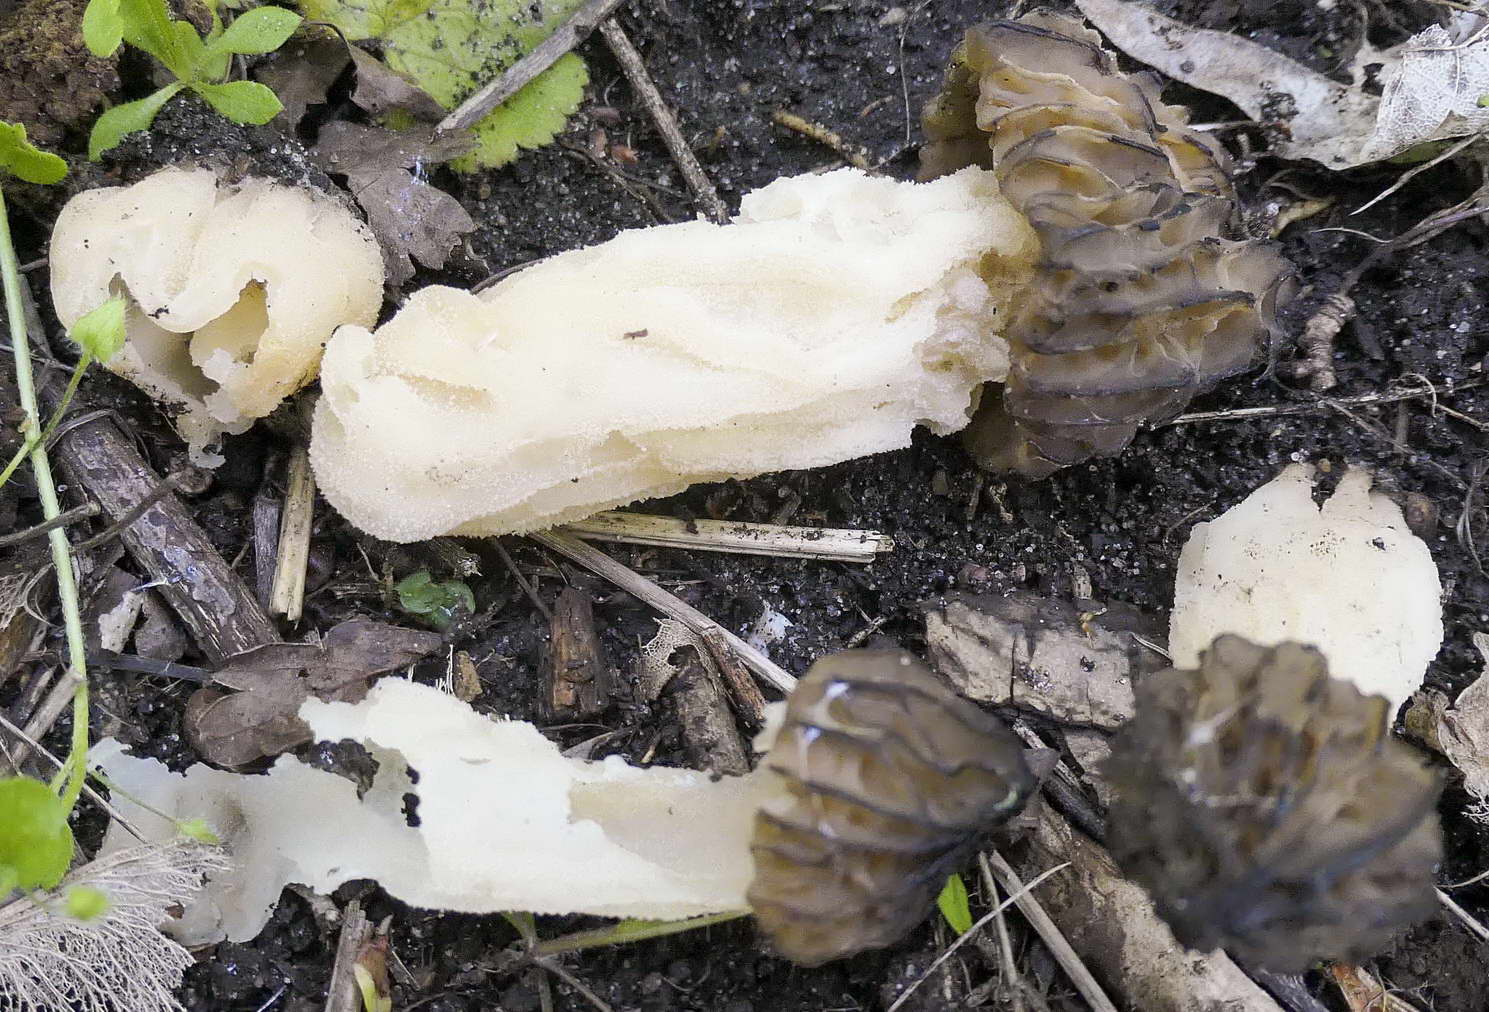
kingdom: Fungi
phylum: Ascomycota
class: Pezizomycetes
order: Pezizales
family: Morchellaceae
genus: Morchella
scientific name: Morchella semilibera
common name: hætte-morkel
